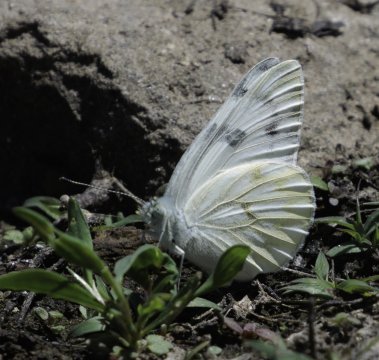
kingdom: Animalia
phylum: Arthropoda
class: Insecta
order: Lepidoptera
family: Pieridae
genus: Pontia
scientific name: Pontia occidentalis
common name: Western White
